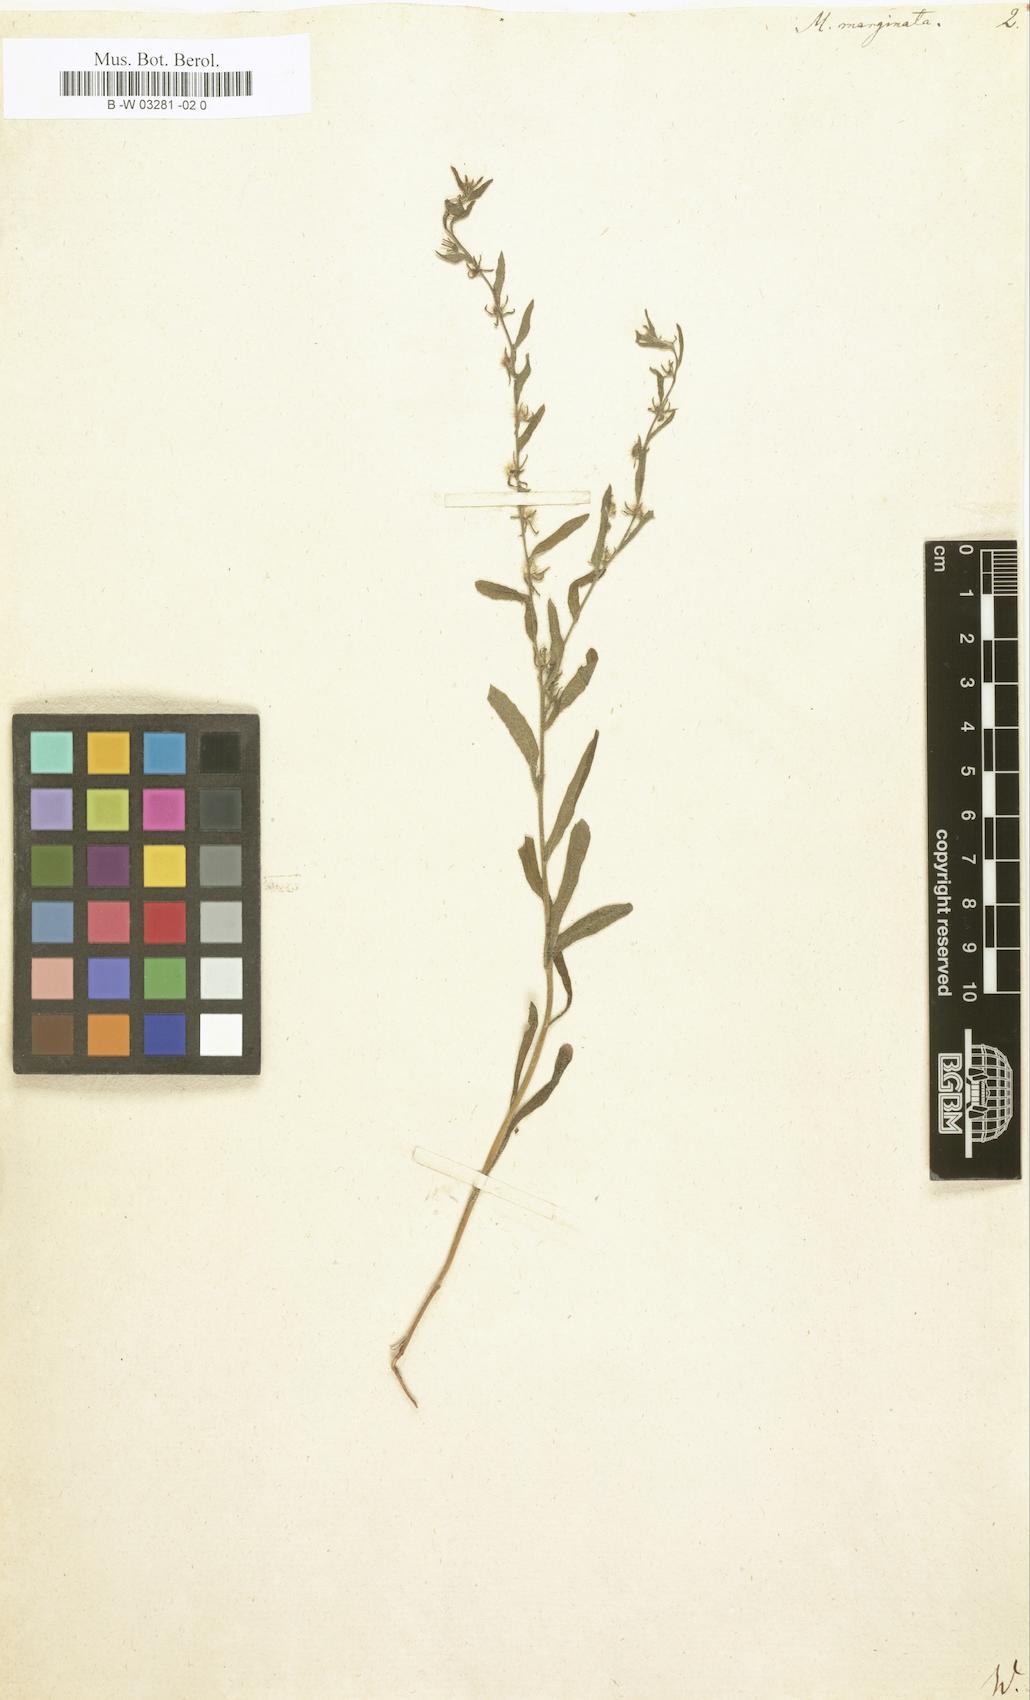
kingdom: Plantae
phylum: Tracheophyta
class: Magnoliopsida
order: Boraginales
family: Boraginaceae
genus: Lappula
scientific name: Lappula marginata
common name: Margined stickseed
